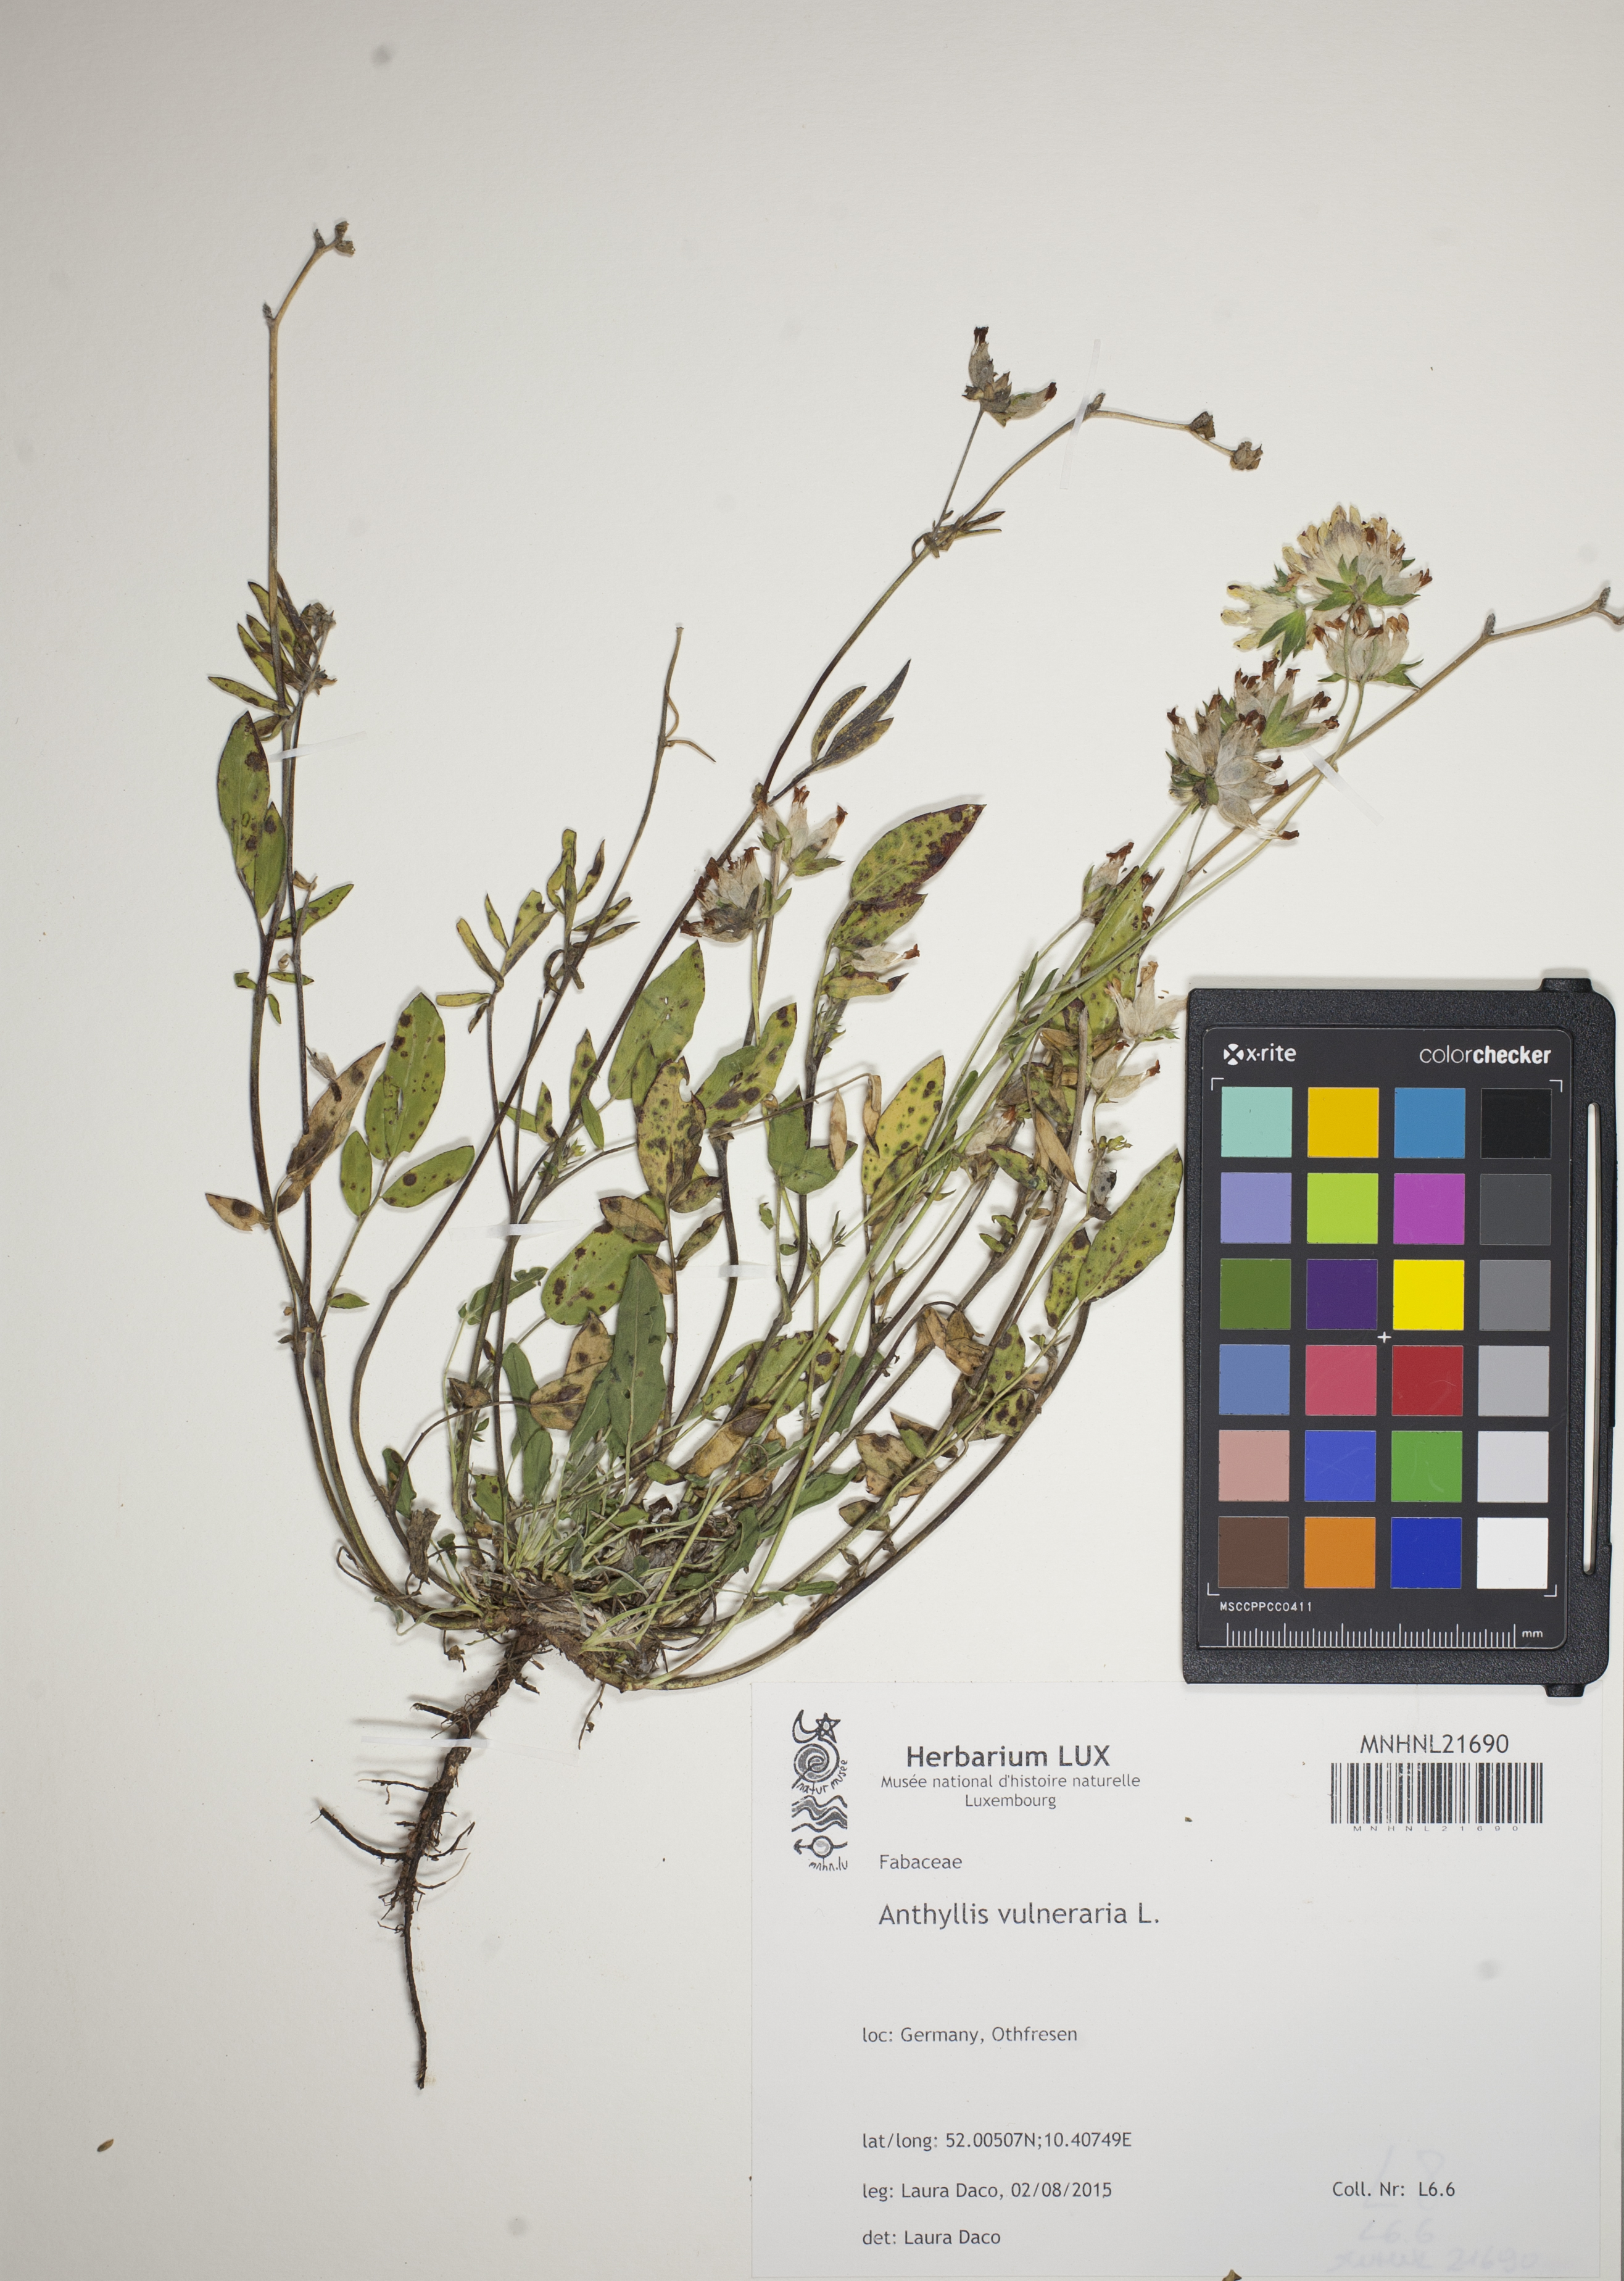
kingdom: Plantae
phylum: Tracheophyta
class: Magnoliopsida
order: Fabales
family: Fabaceae
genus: Anthyllis
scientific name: Anthyllis vulneraria
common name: Kidney vetch
